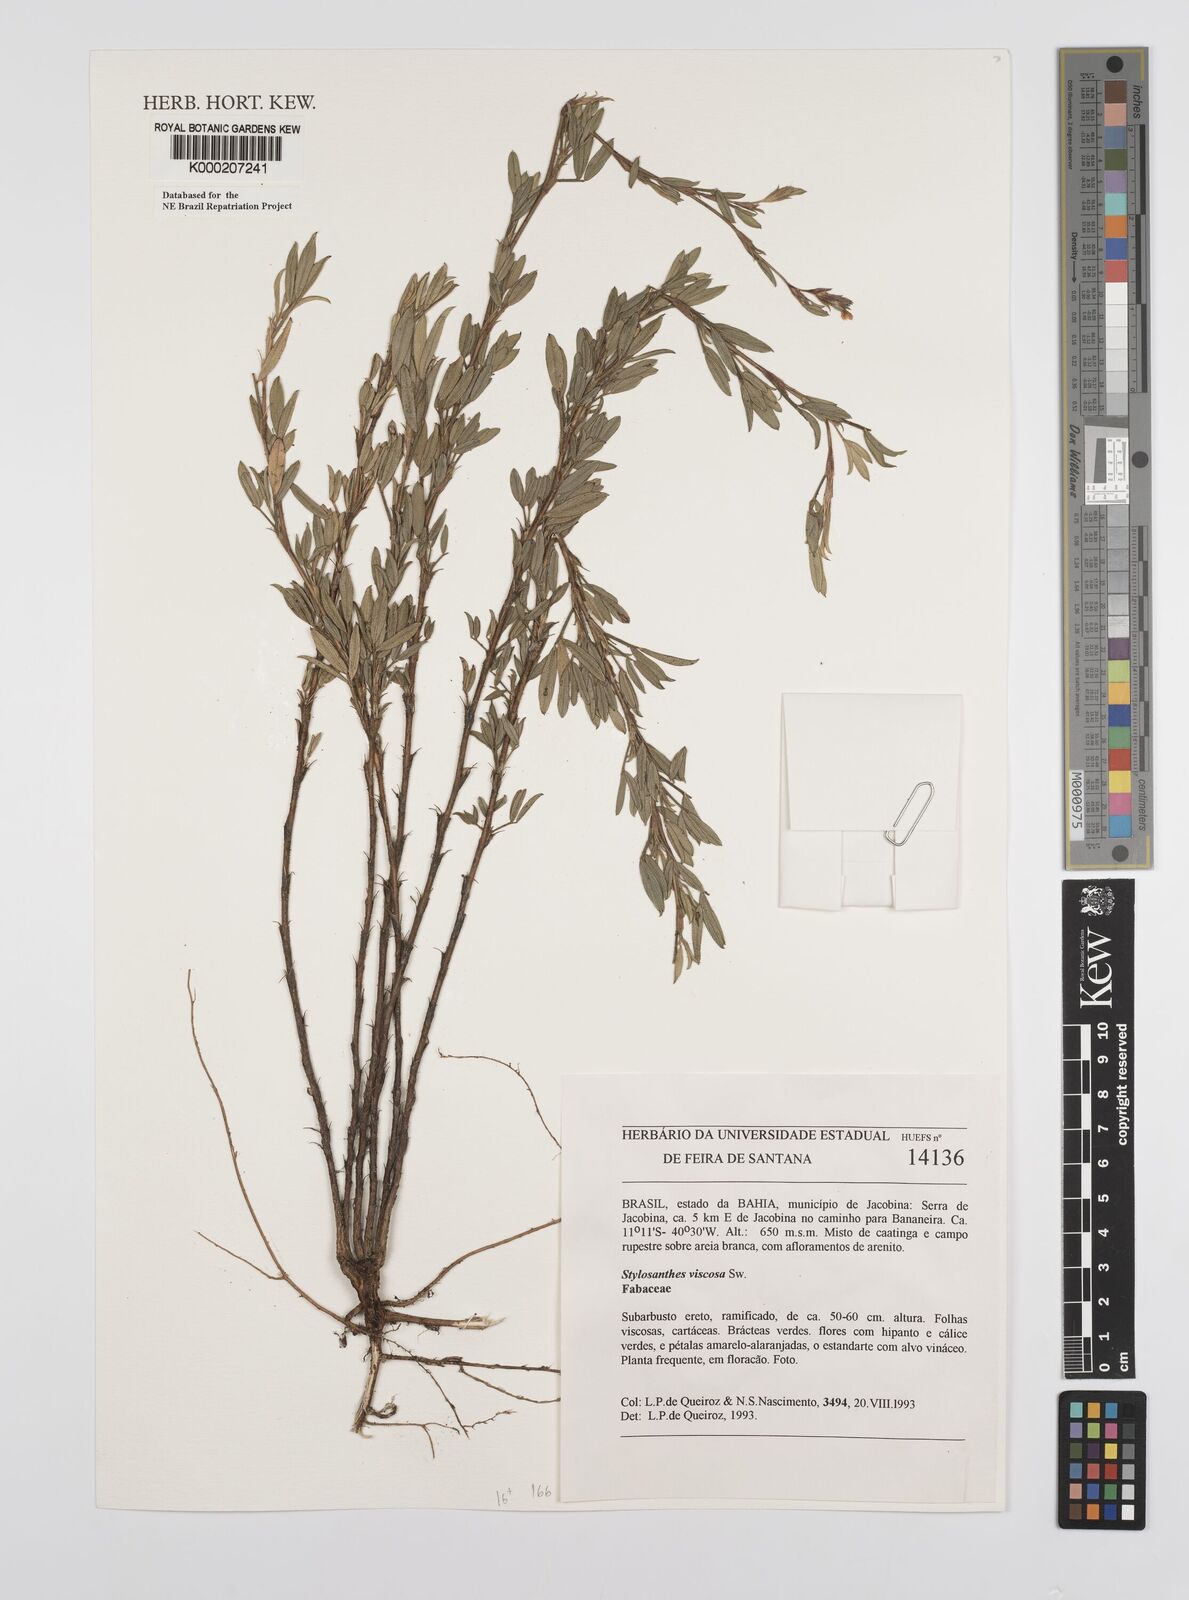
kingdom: Plantae
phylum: Tracheophyta
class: Magnoliopsida
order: Fabales
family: Fabaceae
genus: Stylosanthes
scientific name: Stylosanthes viscosa
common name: Viscid pencil-flower
